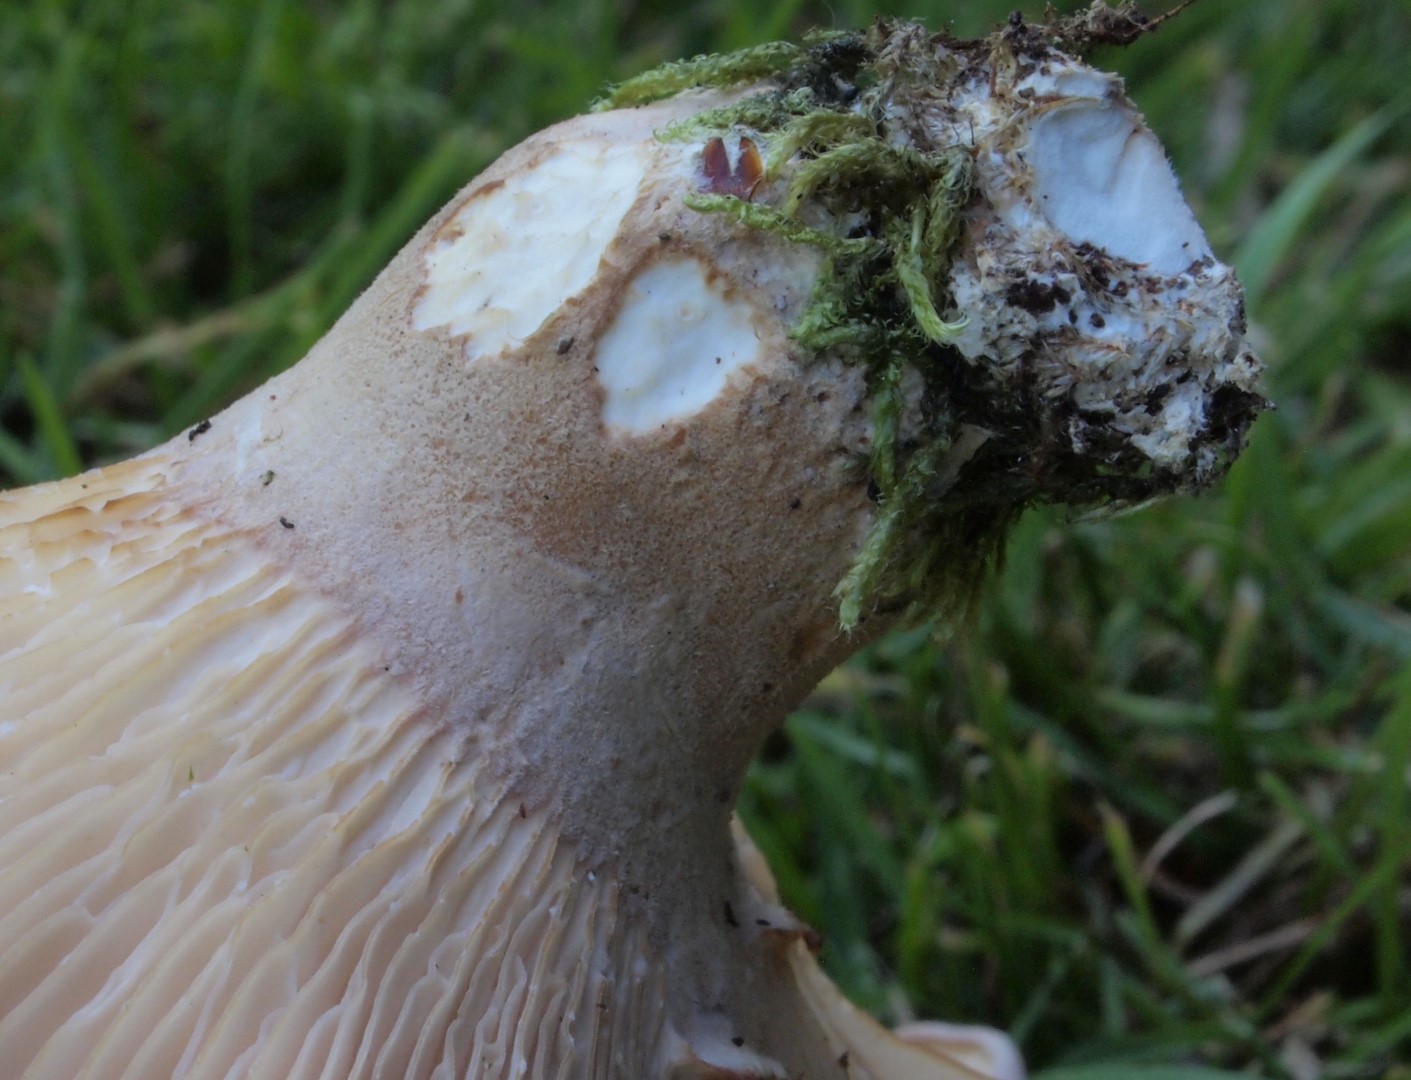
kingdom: Fungi
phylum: Basidiomycota
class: Agaricomycetes
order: Polyporales
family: Panaceae
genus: Panus
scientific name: Panus conchatus
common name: filtstokket læderhat
